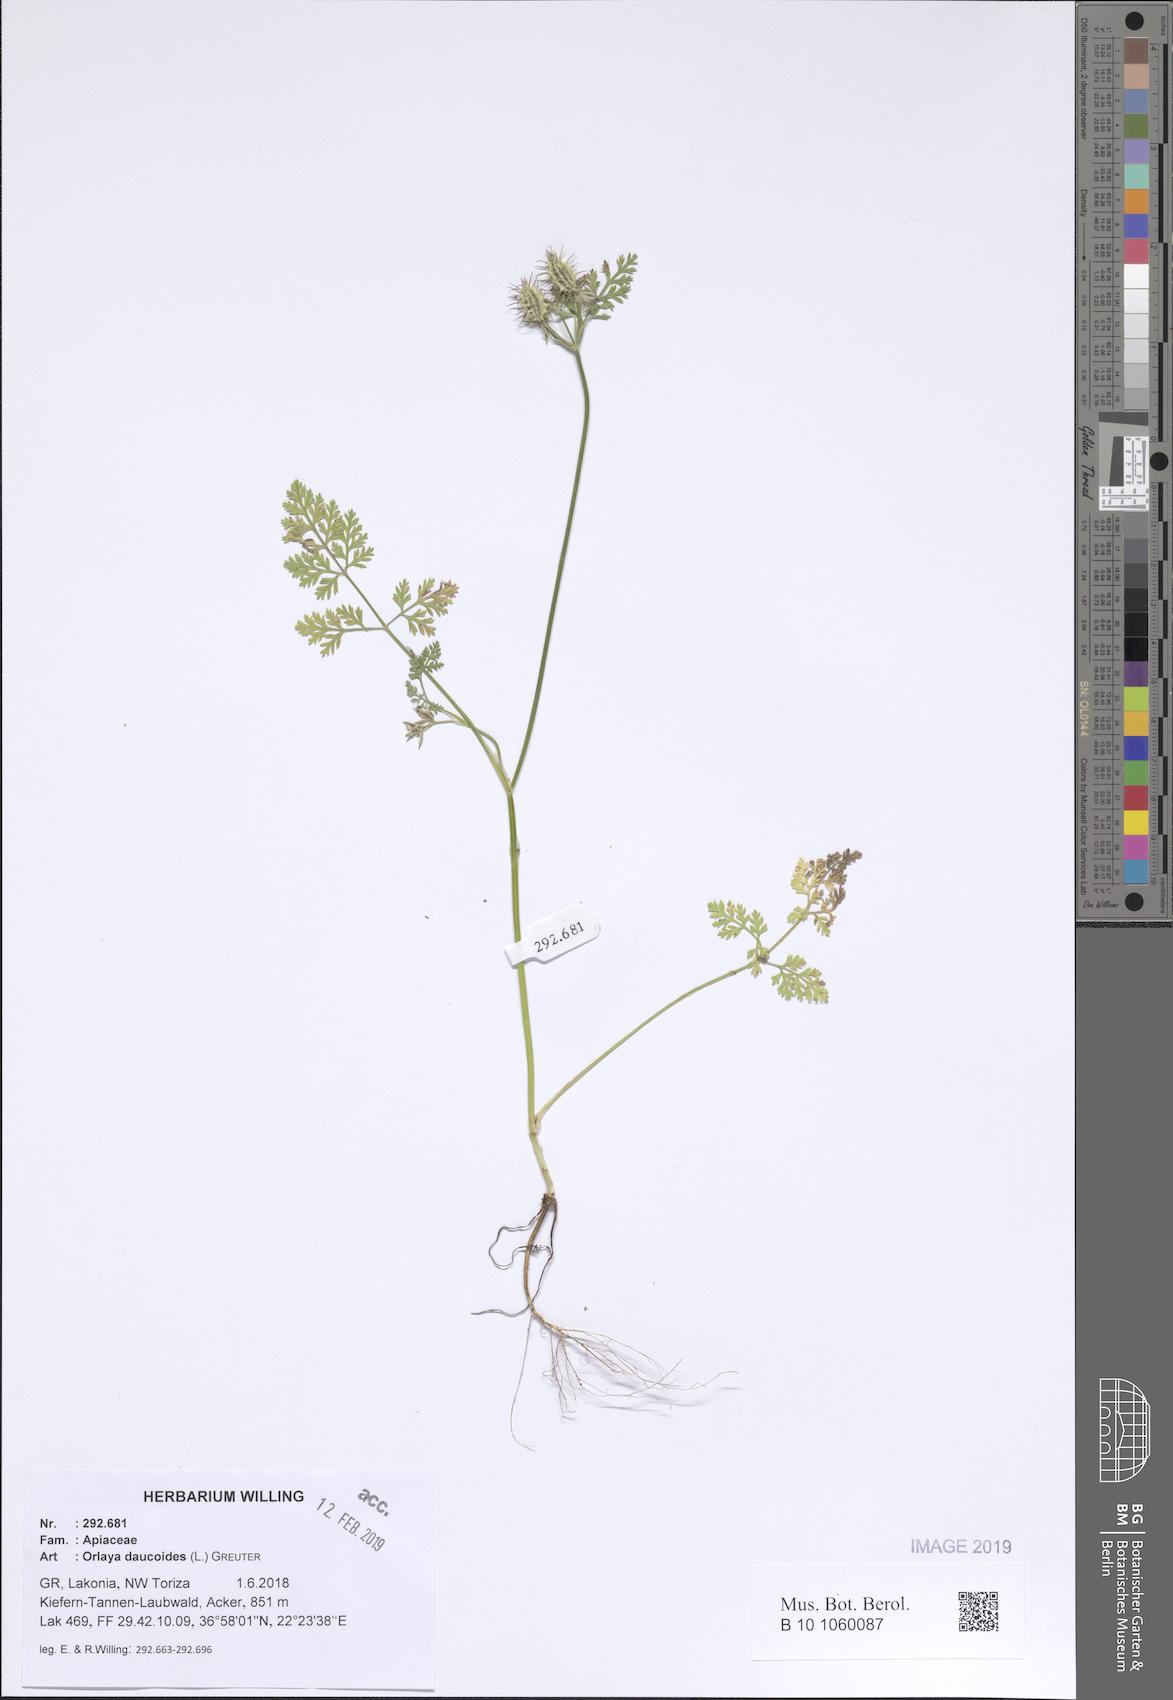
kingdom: Plantae
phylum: Tracheophyta
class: Magnoliopsida
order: Apiales
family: Apiaceae
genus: Orlaya
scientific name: Orlaya daucoides
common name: Flat-fruit orlaya
